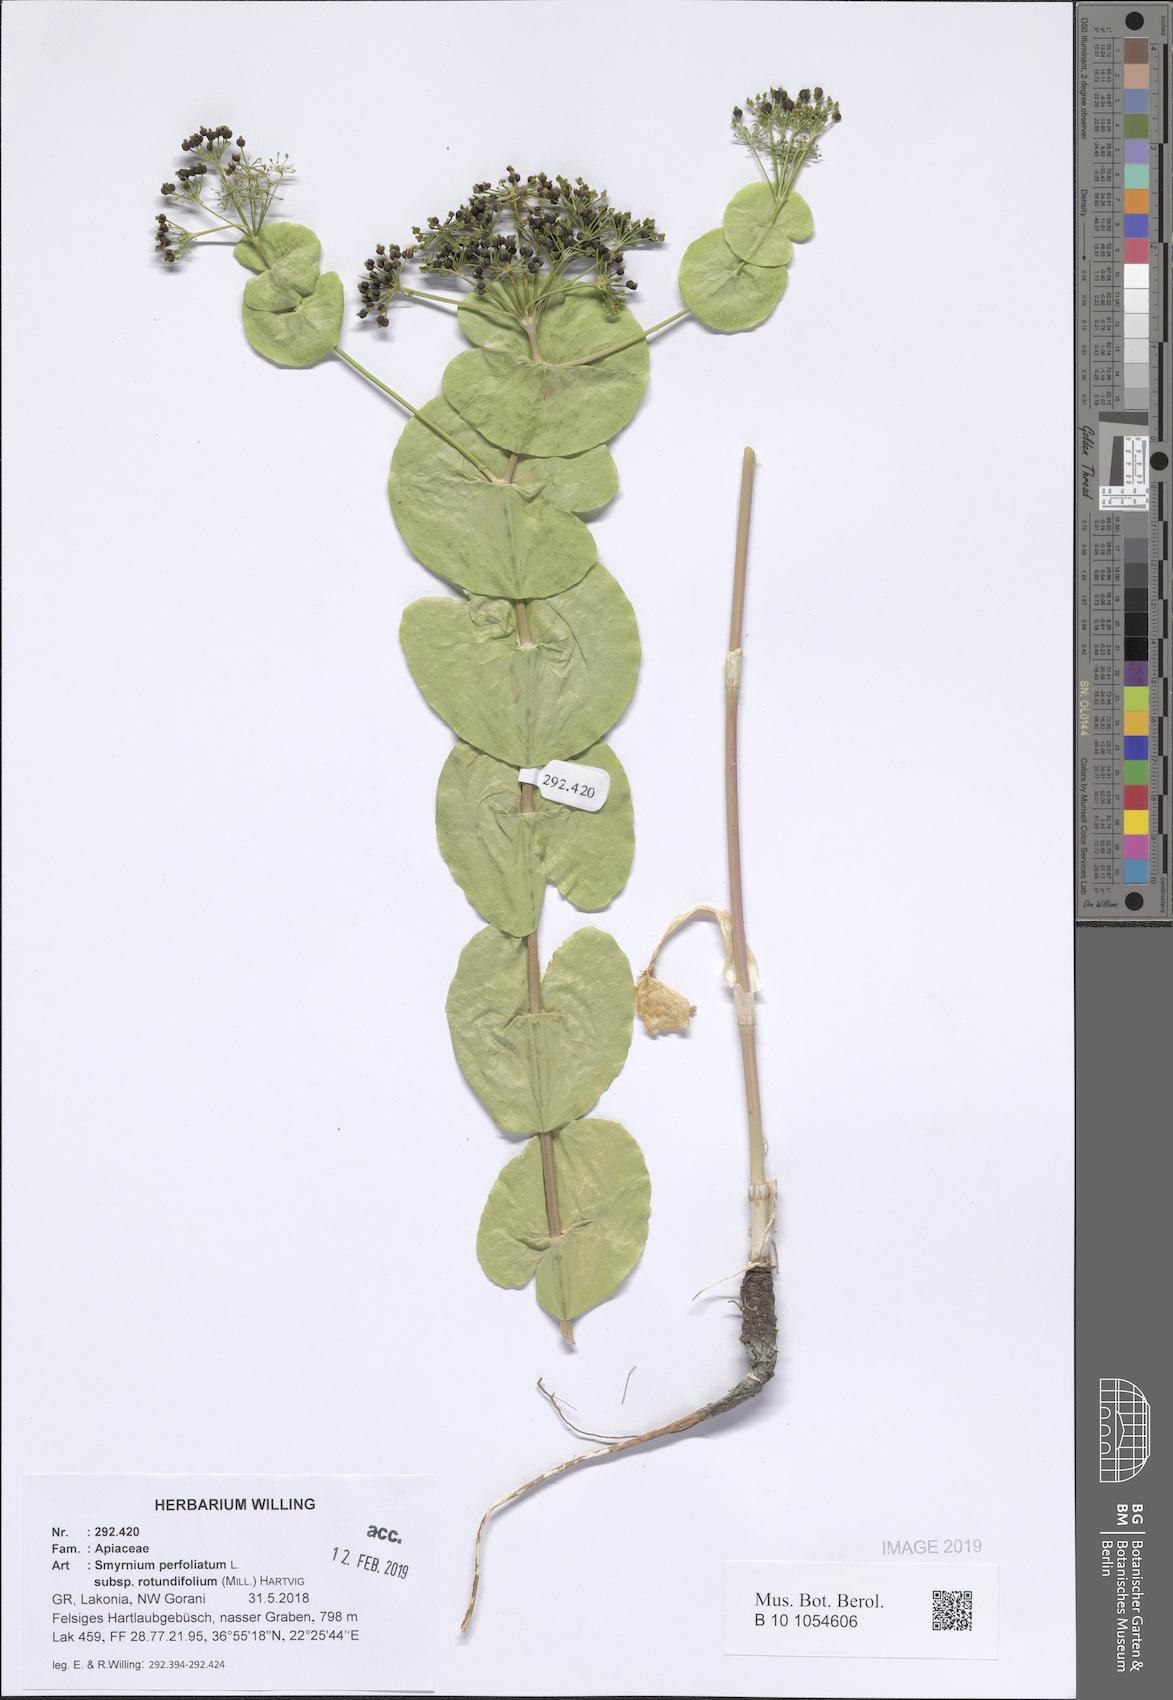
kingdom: Plantae
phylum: Tracheophyta
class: Magnoliopsida
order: Apiales
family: Apiaceae
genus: Smyrnium
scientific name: Smyrnium perfoliatum
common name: Perfoliate alexanders
